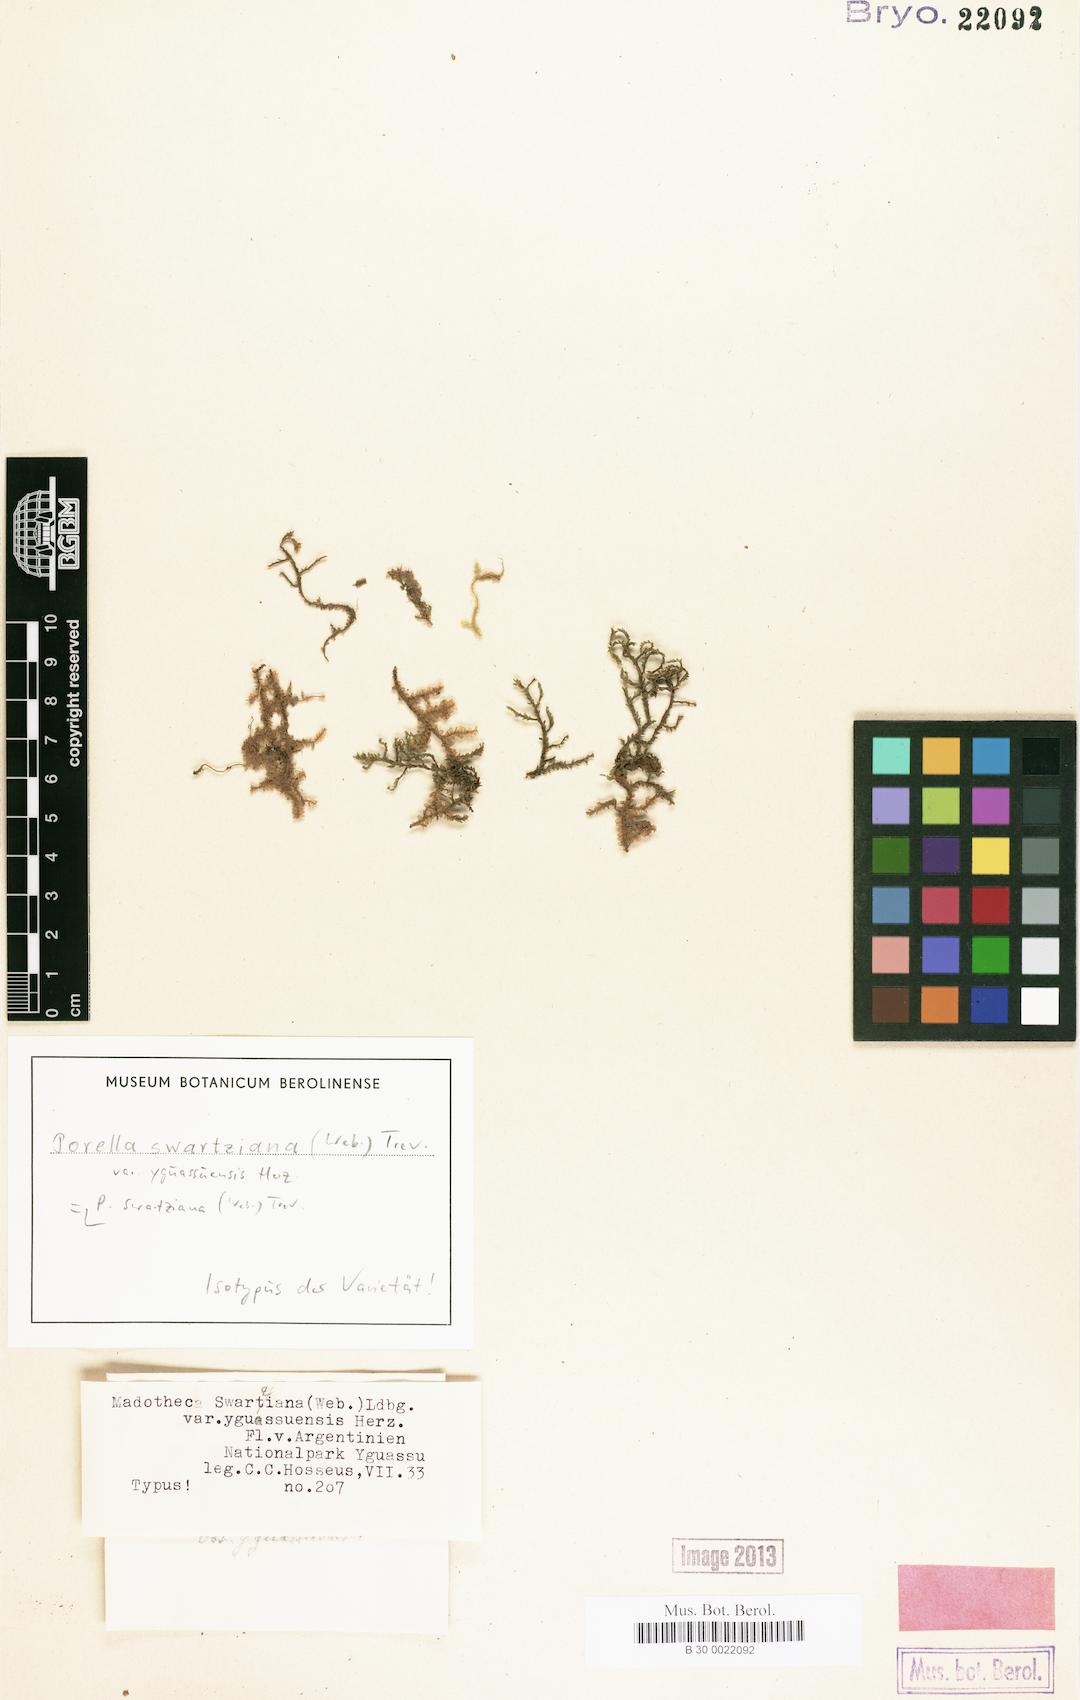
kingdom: Plantae
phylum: Marchantiophyta
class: Jungermanniopsida
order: Porellales
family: Porellaceae
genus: Porella
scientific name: Porella swartziana
